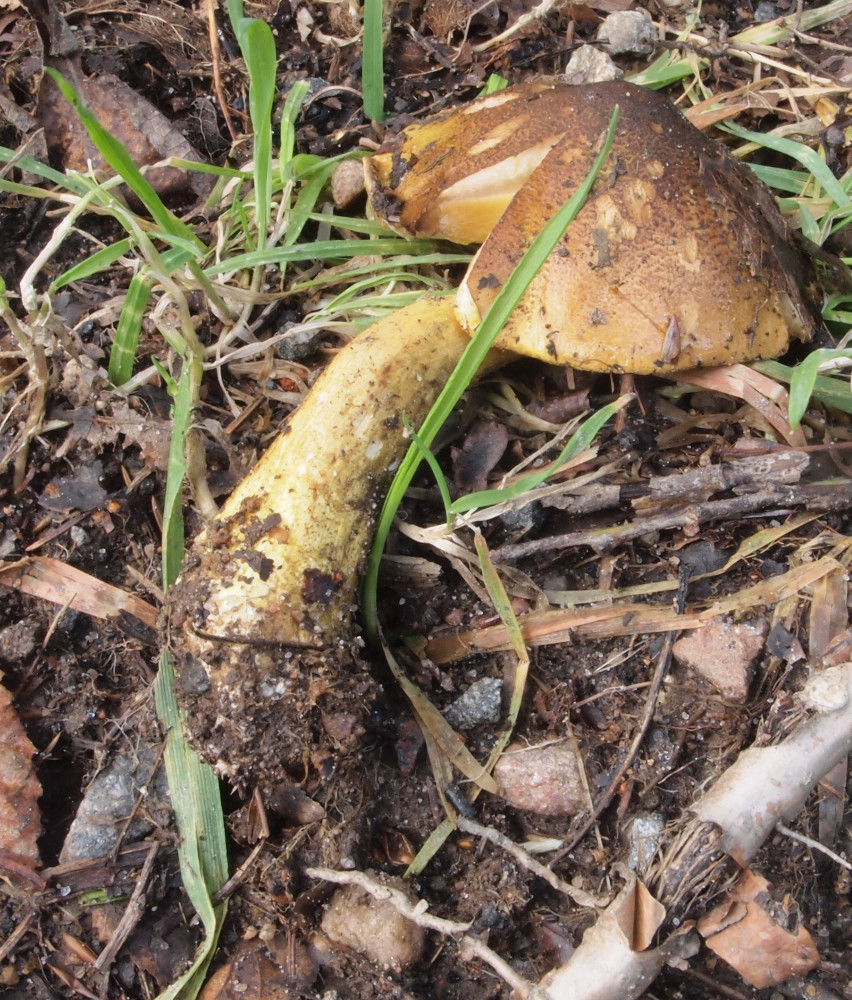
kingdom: Fungi
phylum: Basidiomycota
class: Agaricomycetes
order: Agaricales
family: Tricholomataceae
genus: Tricholoma
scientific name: Tricholoma frondosae
